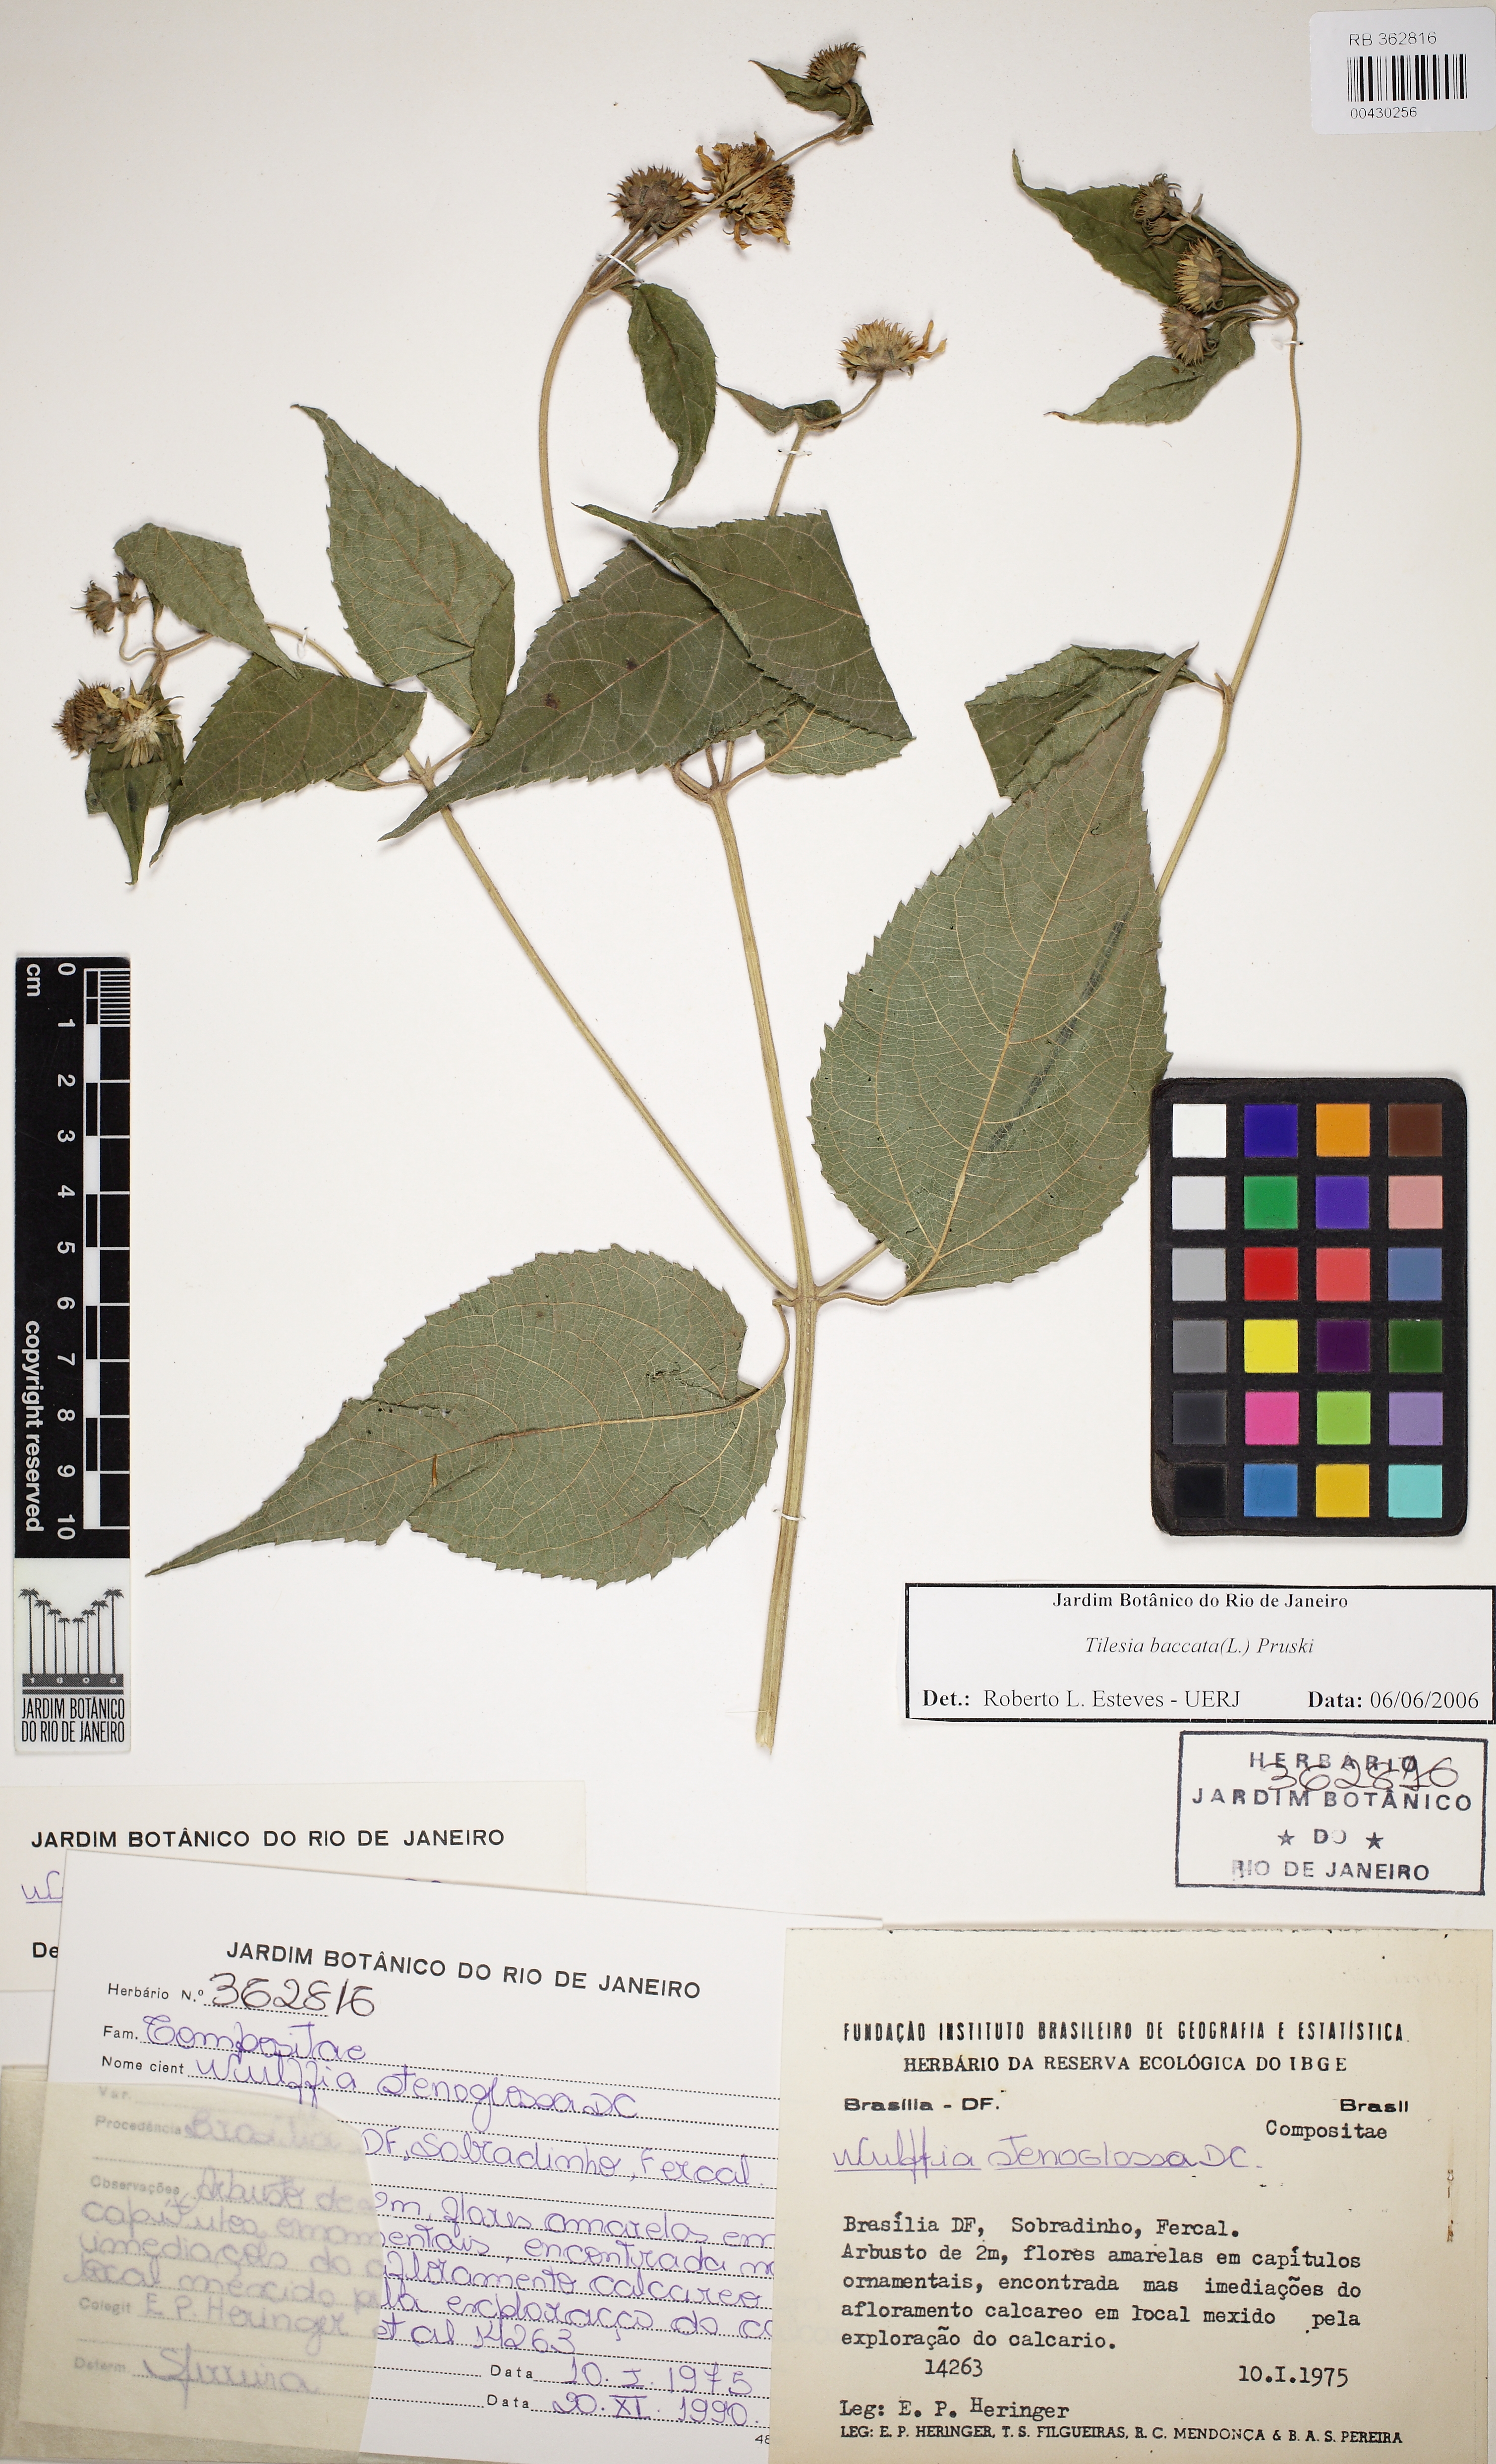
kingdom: Plantae
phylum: Tracheophyta
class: Magnoliopsida
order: Asterales
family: Asteraceae
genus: Tilesia
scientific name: Tilesia baccata
